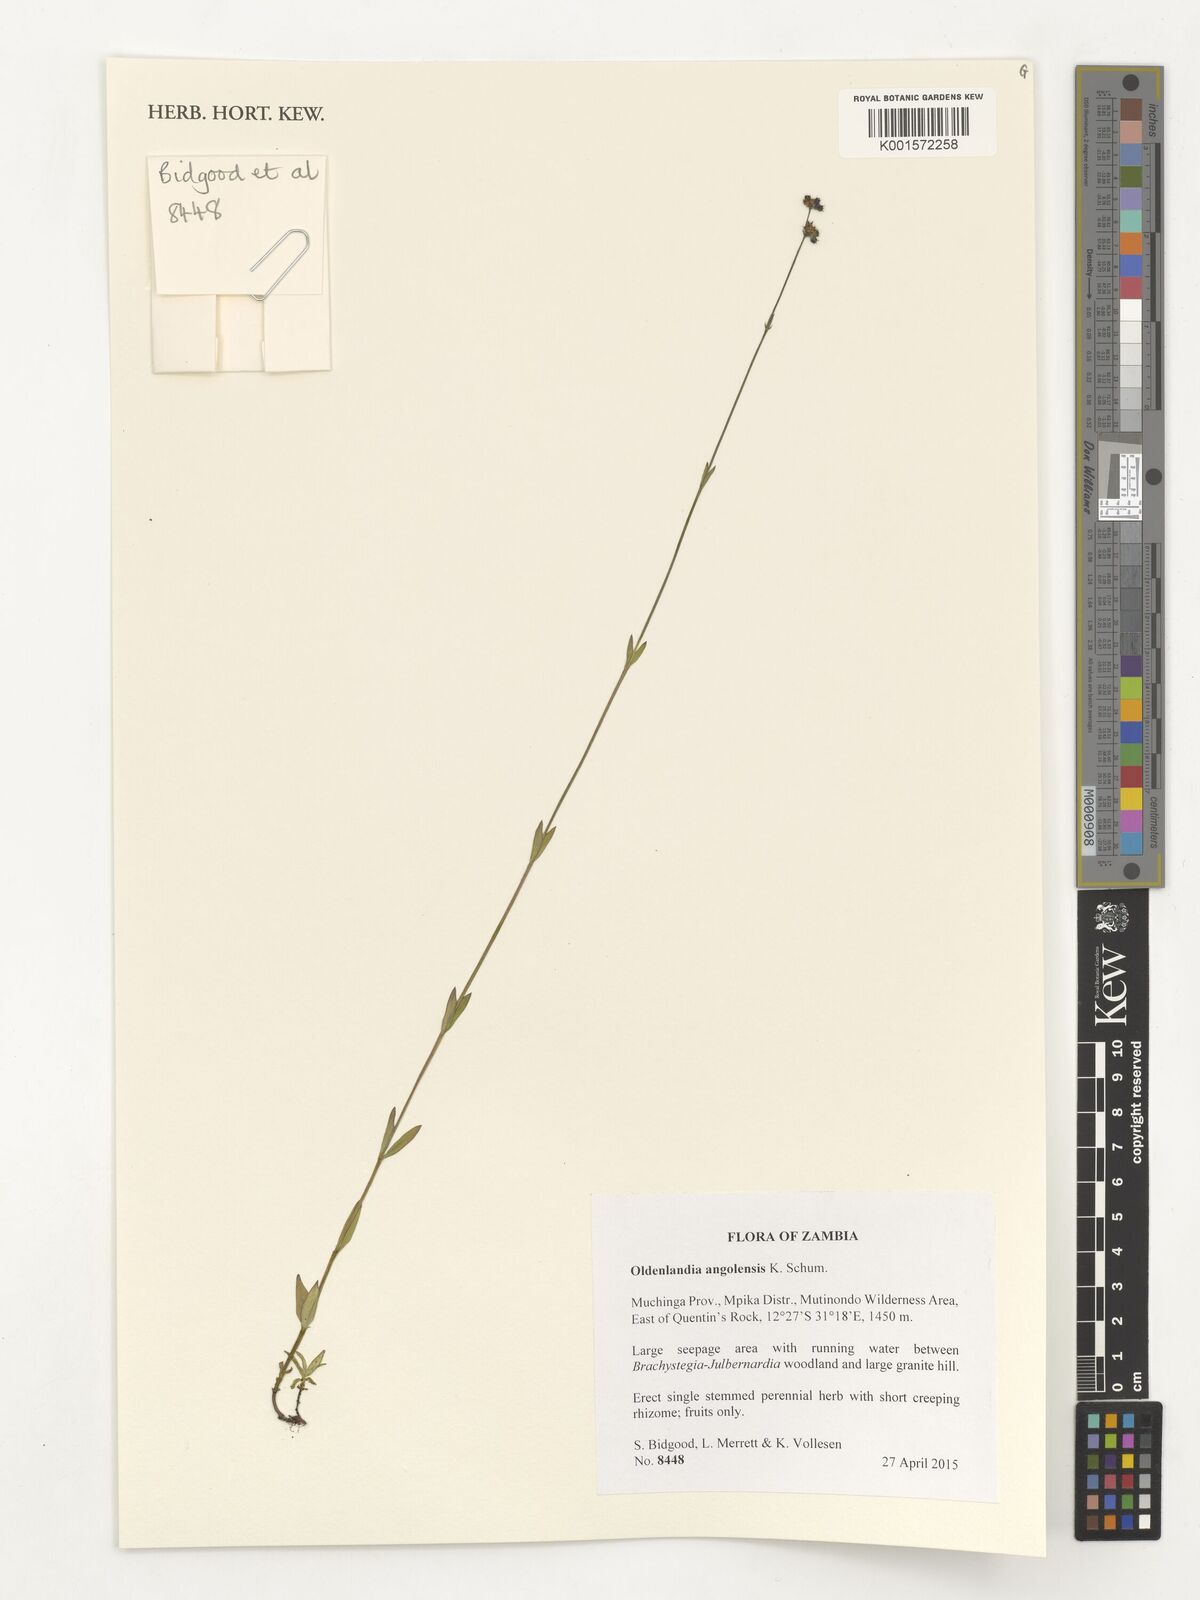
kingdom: Plantae
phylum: Tracheophyta
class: Magnoliopsida
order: Gentianales
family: Rubiaceae
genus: Edrastima
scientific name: Edrastima angolensis
